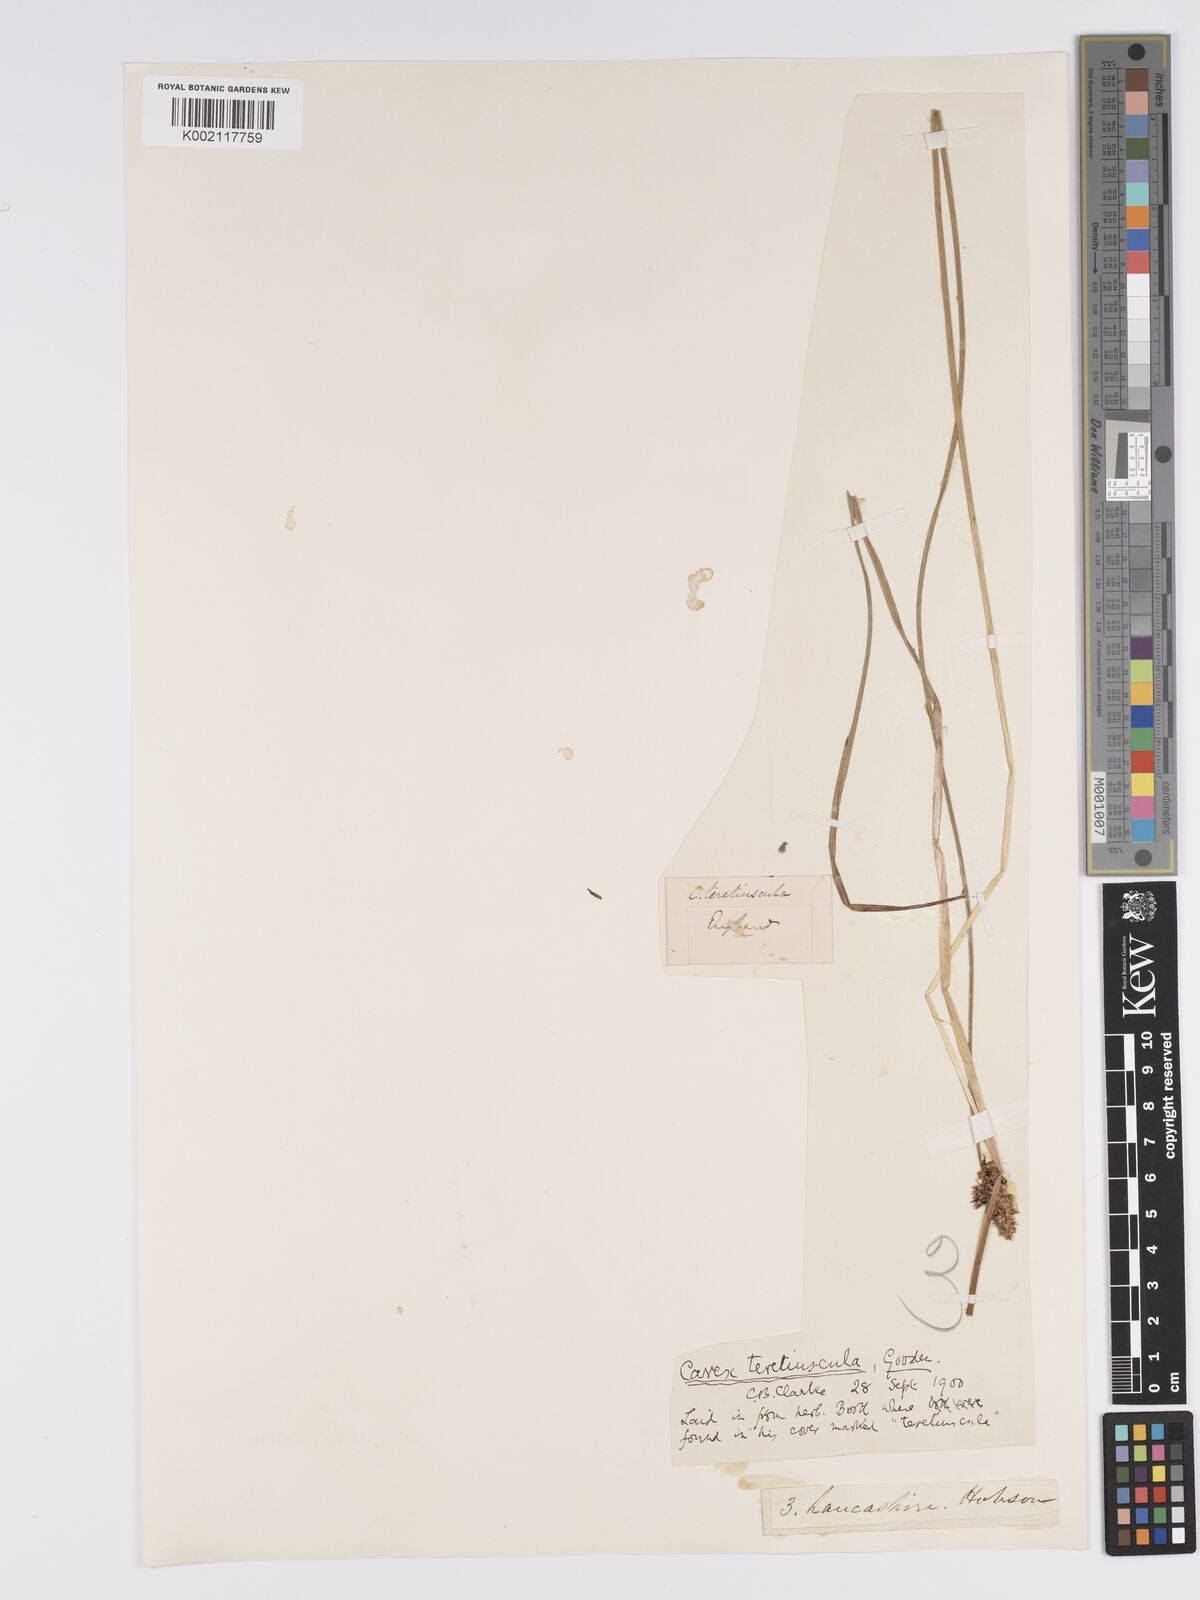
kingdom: Plantae
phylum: Tracheophyta
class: Liliopsida
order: Poales
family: Cyperaceae
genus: Carex
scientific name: Carex diandra
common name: Lesser tussock-sedge
